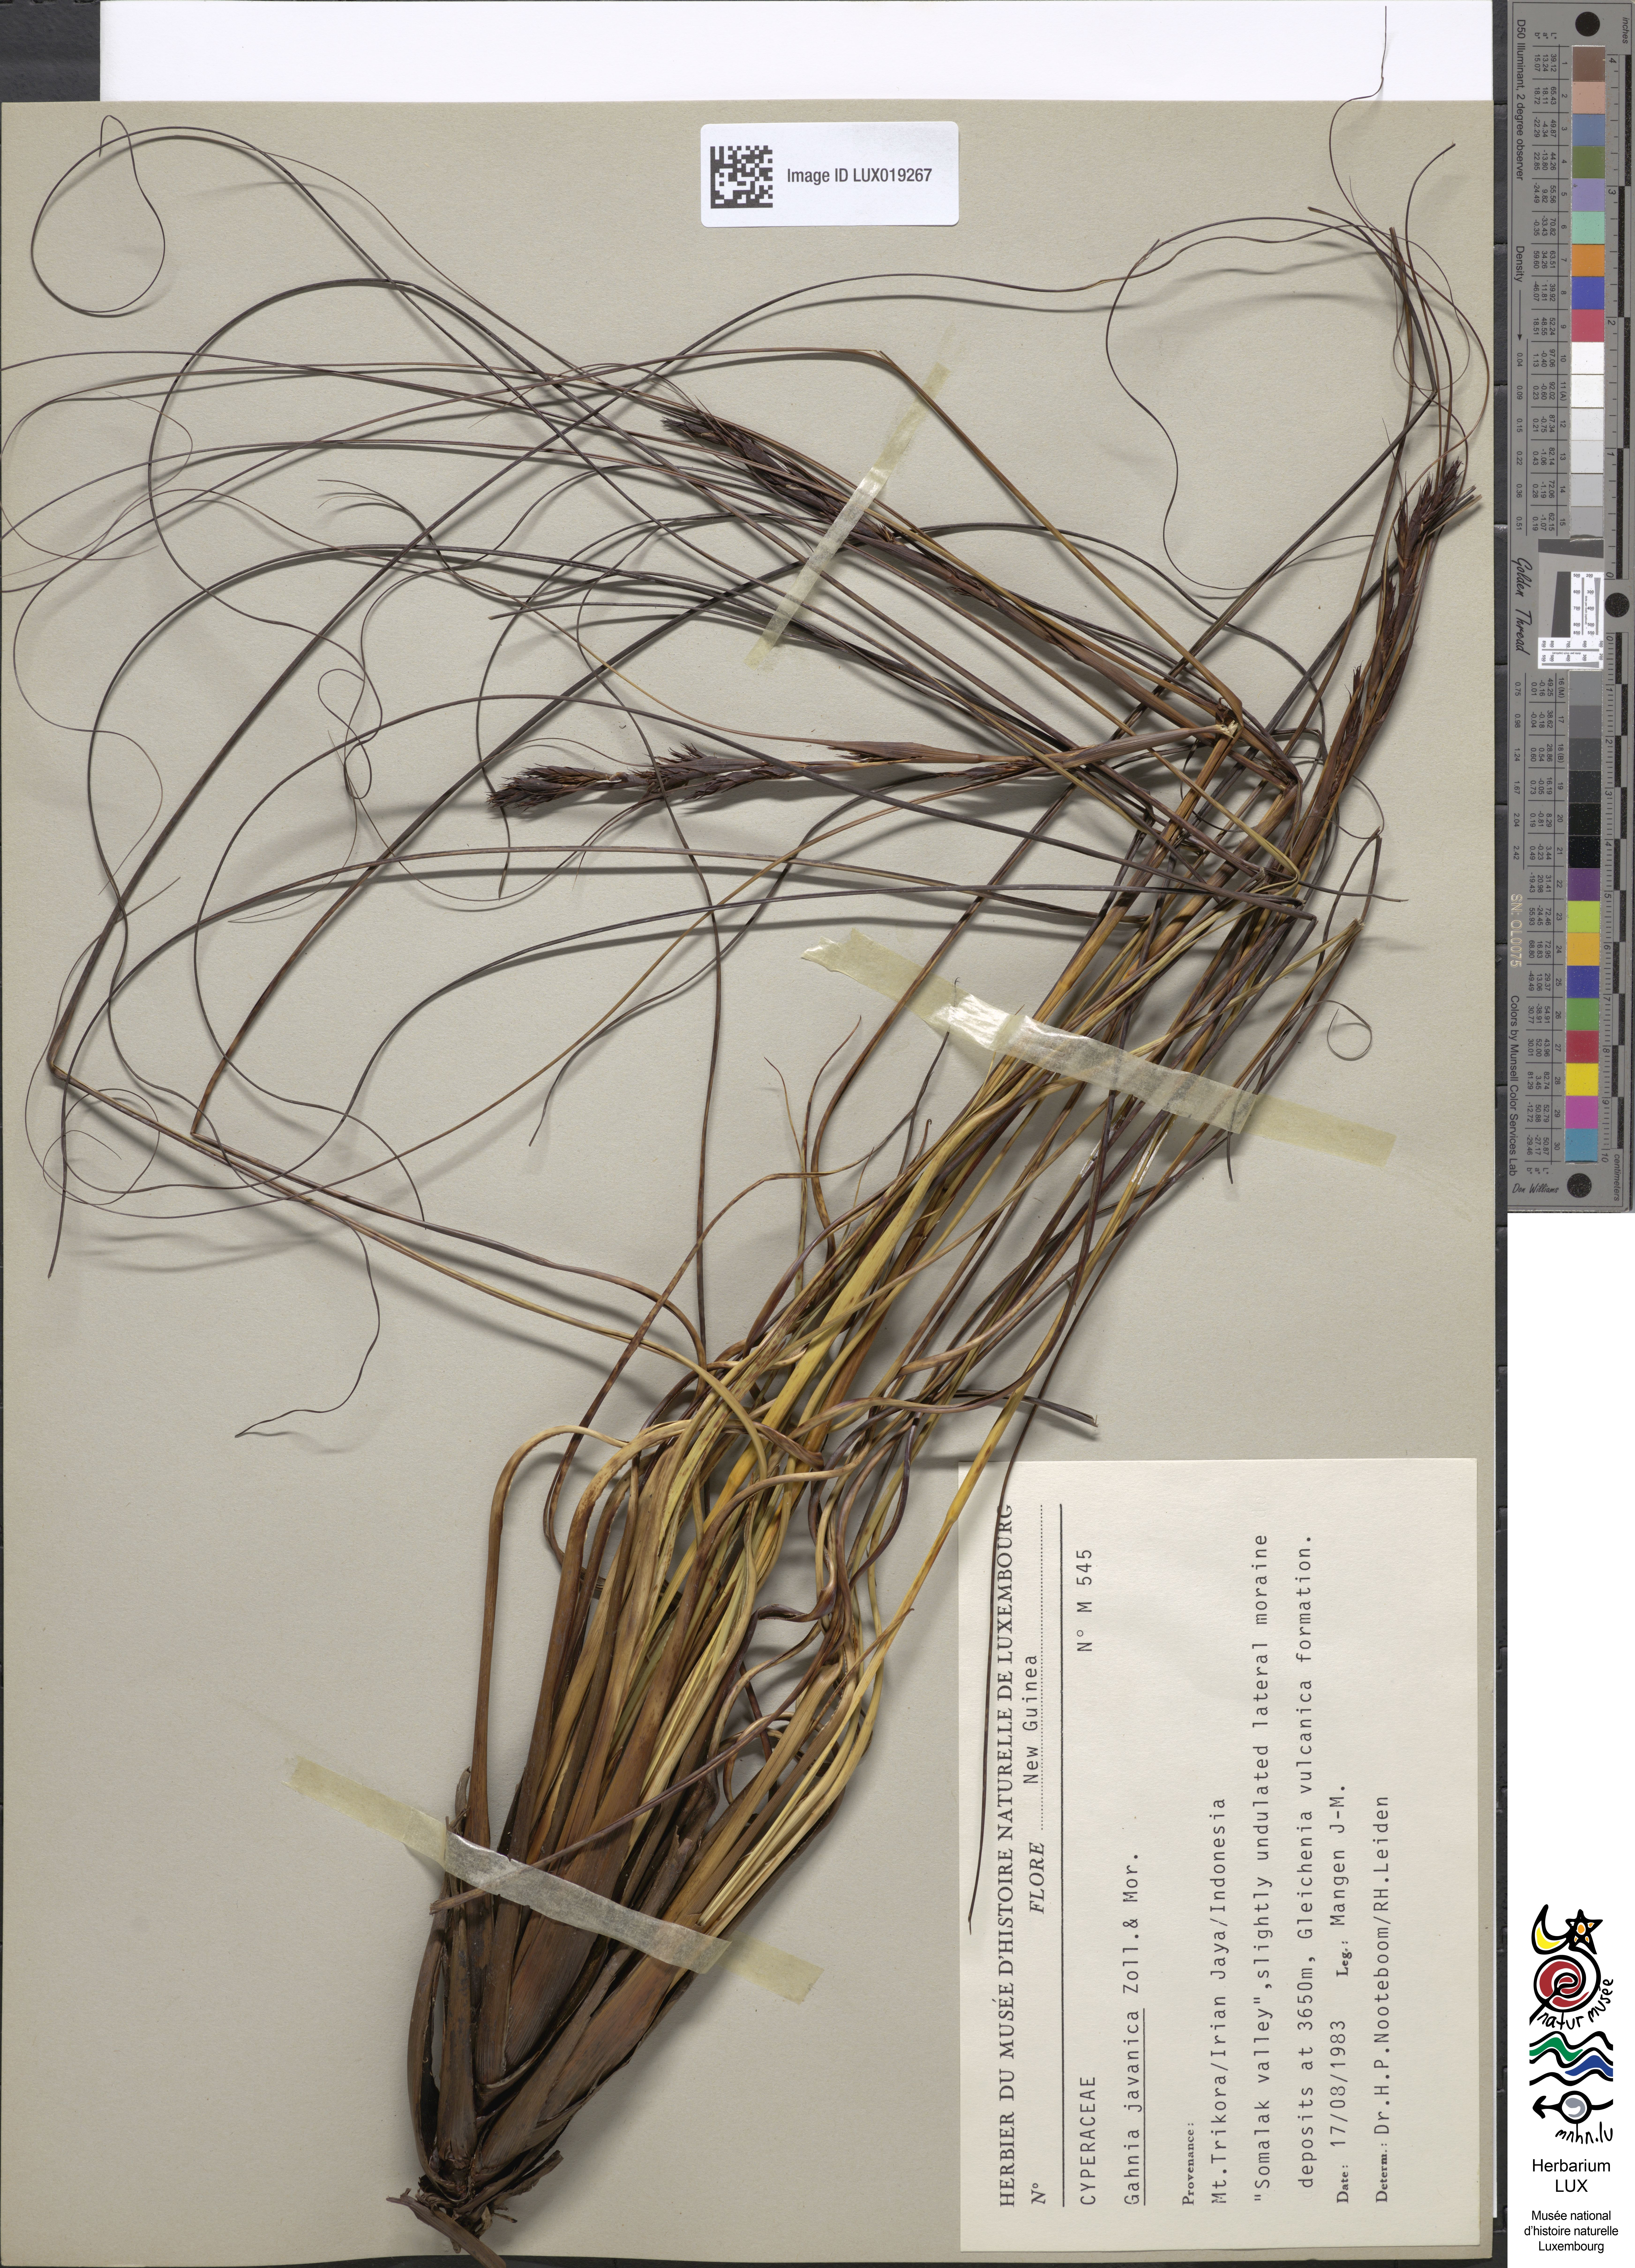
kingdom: Plantae
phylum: Tracheophyta
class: Liliopsida
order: Poales
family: Cyperaceae
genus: Gahnia
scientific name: Gahnia javanica
